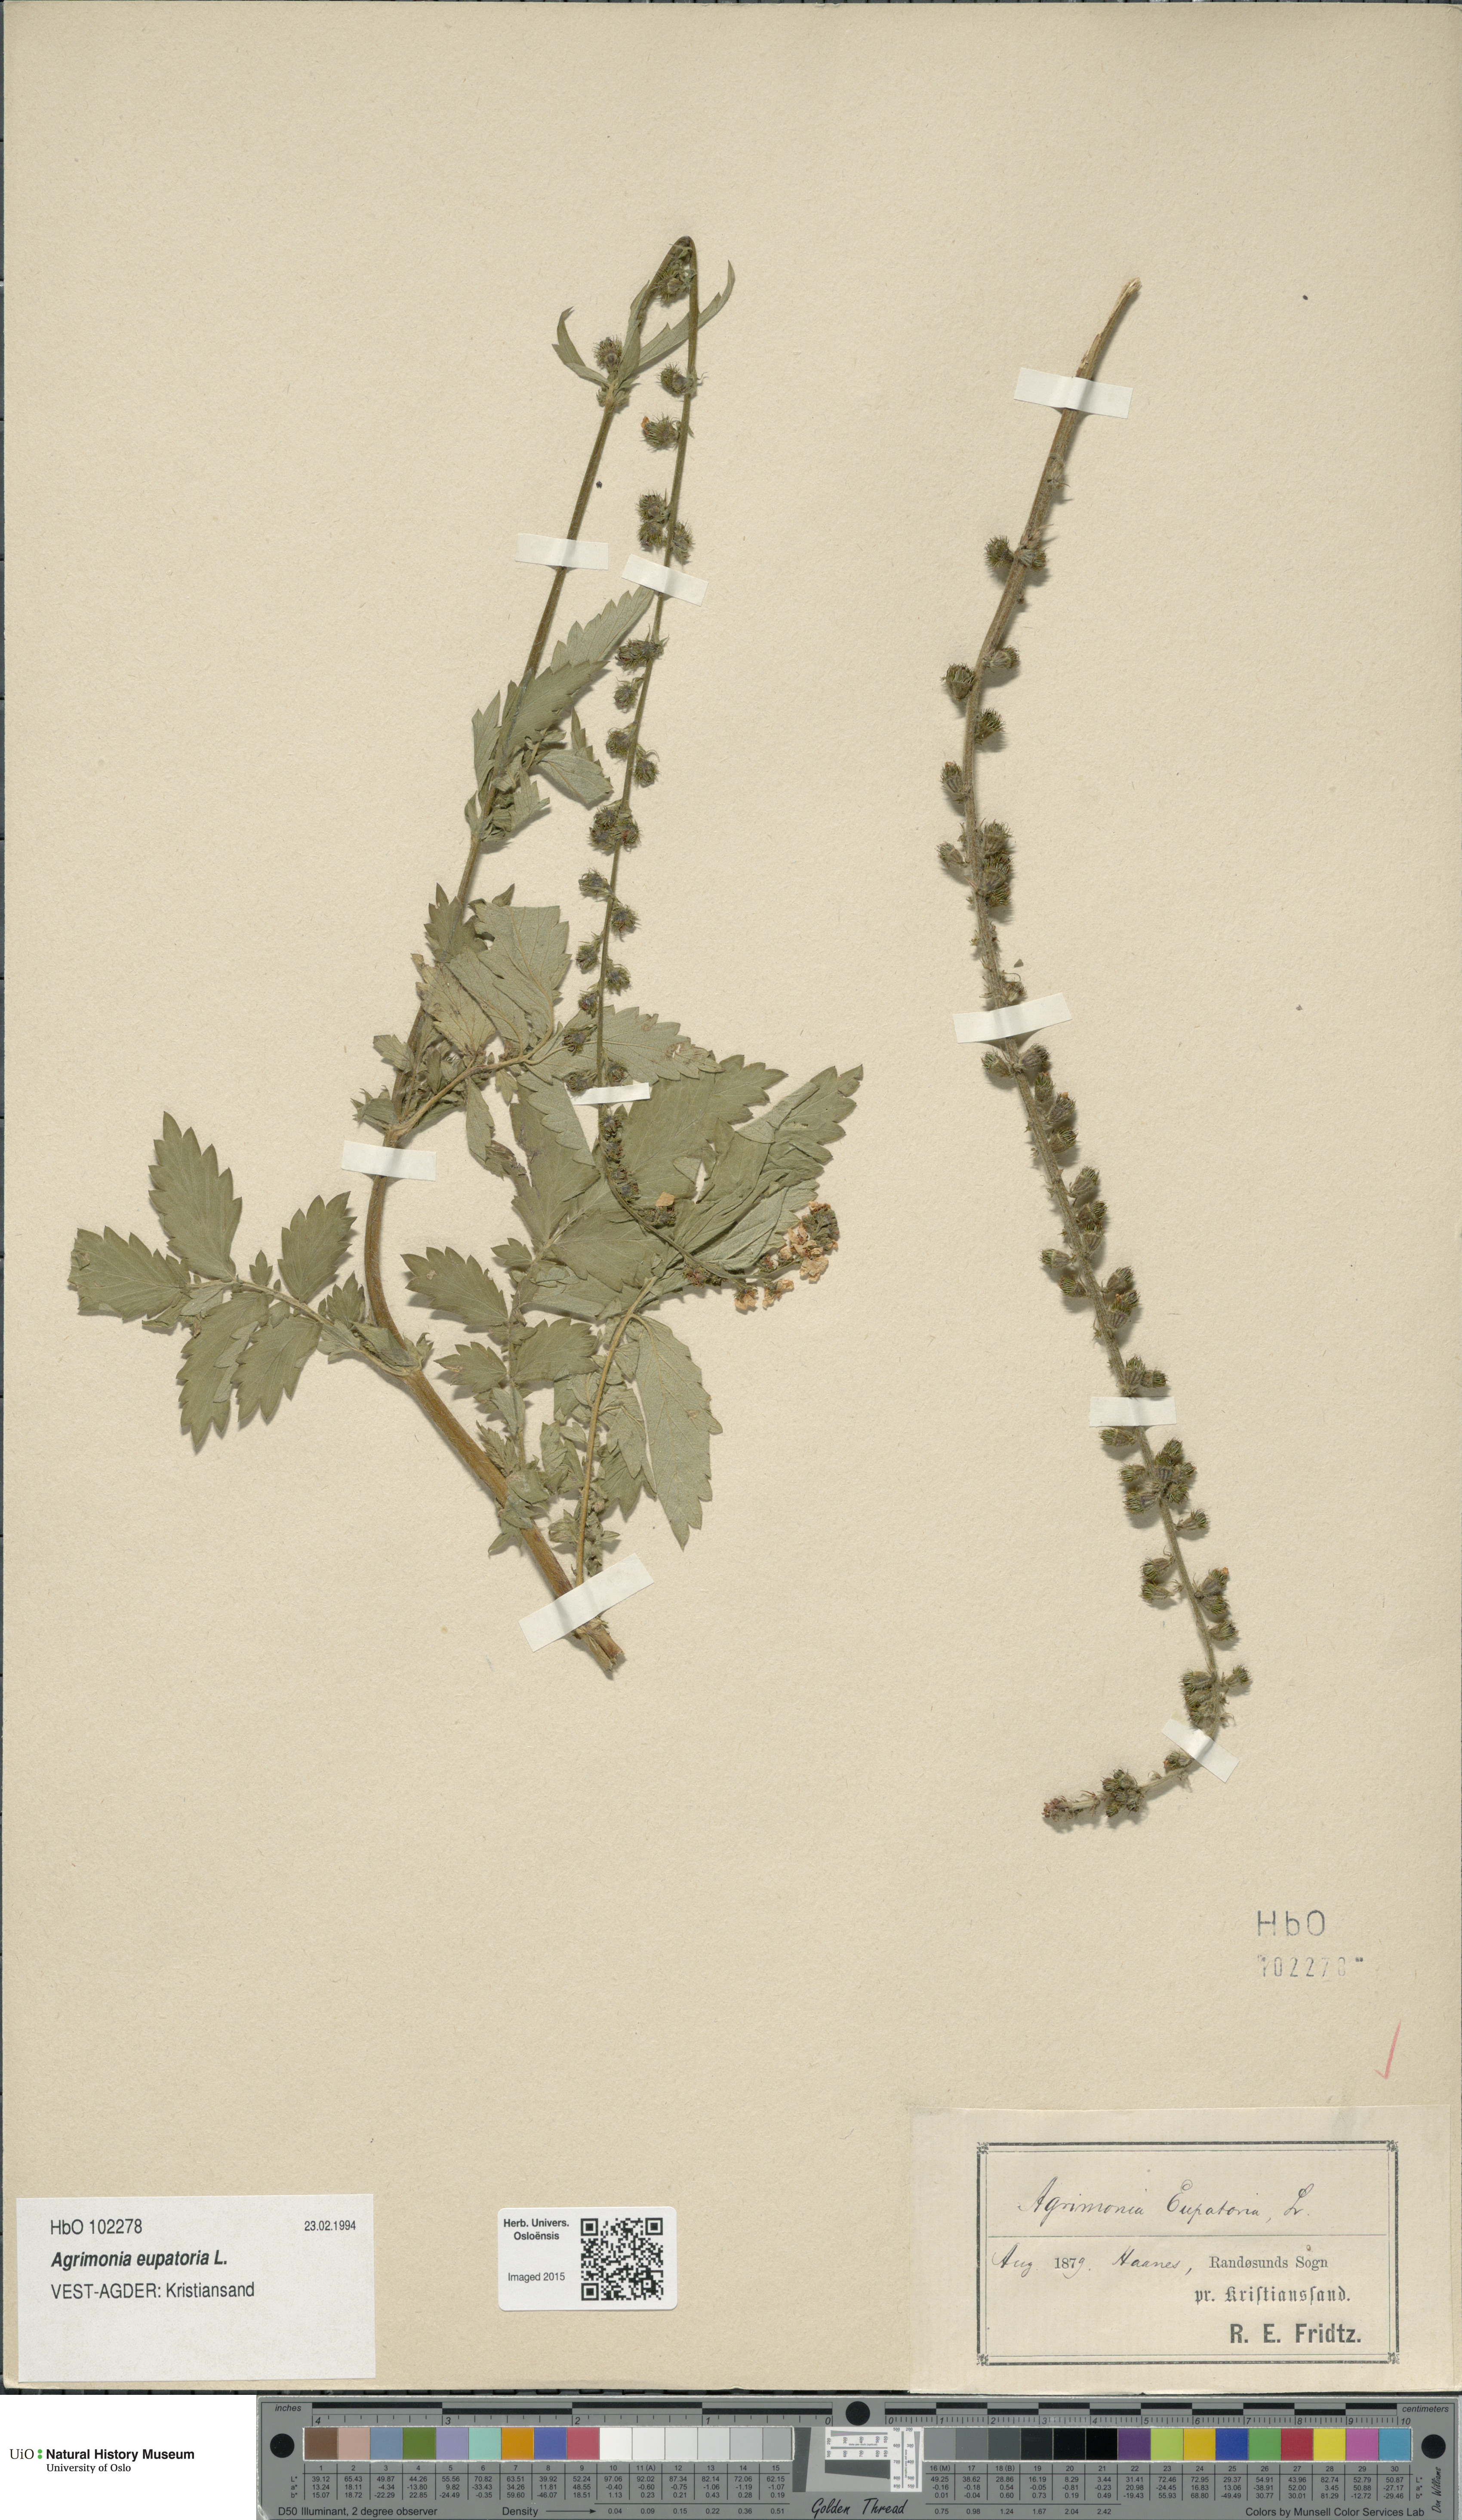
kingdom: Plantae
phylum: Tracheophyta
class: Magnoliopsida
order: Rosales
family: Rosaceae
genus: Agrimonia
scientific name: Agrimonia eupatoria
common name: Agrimony
